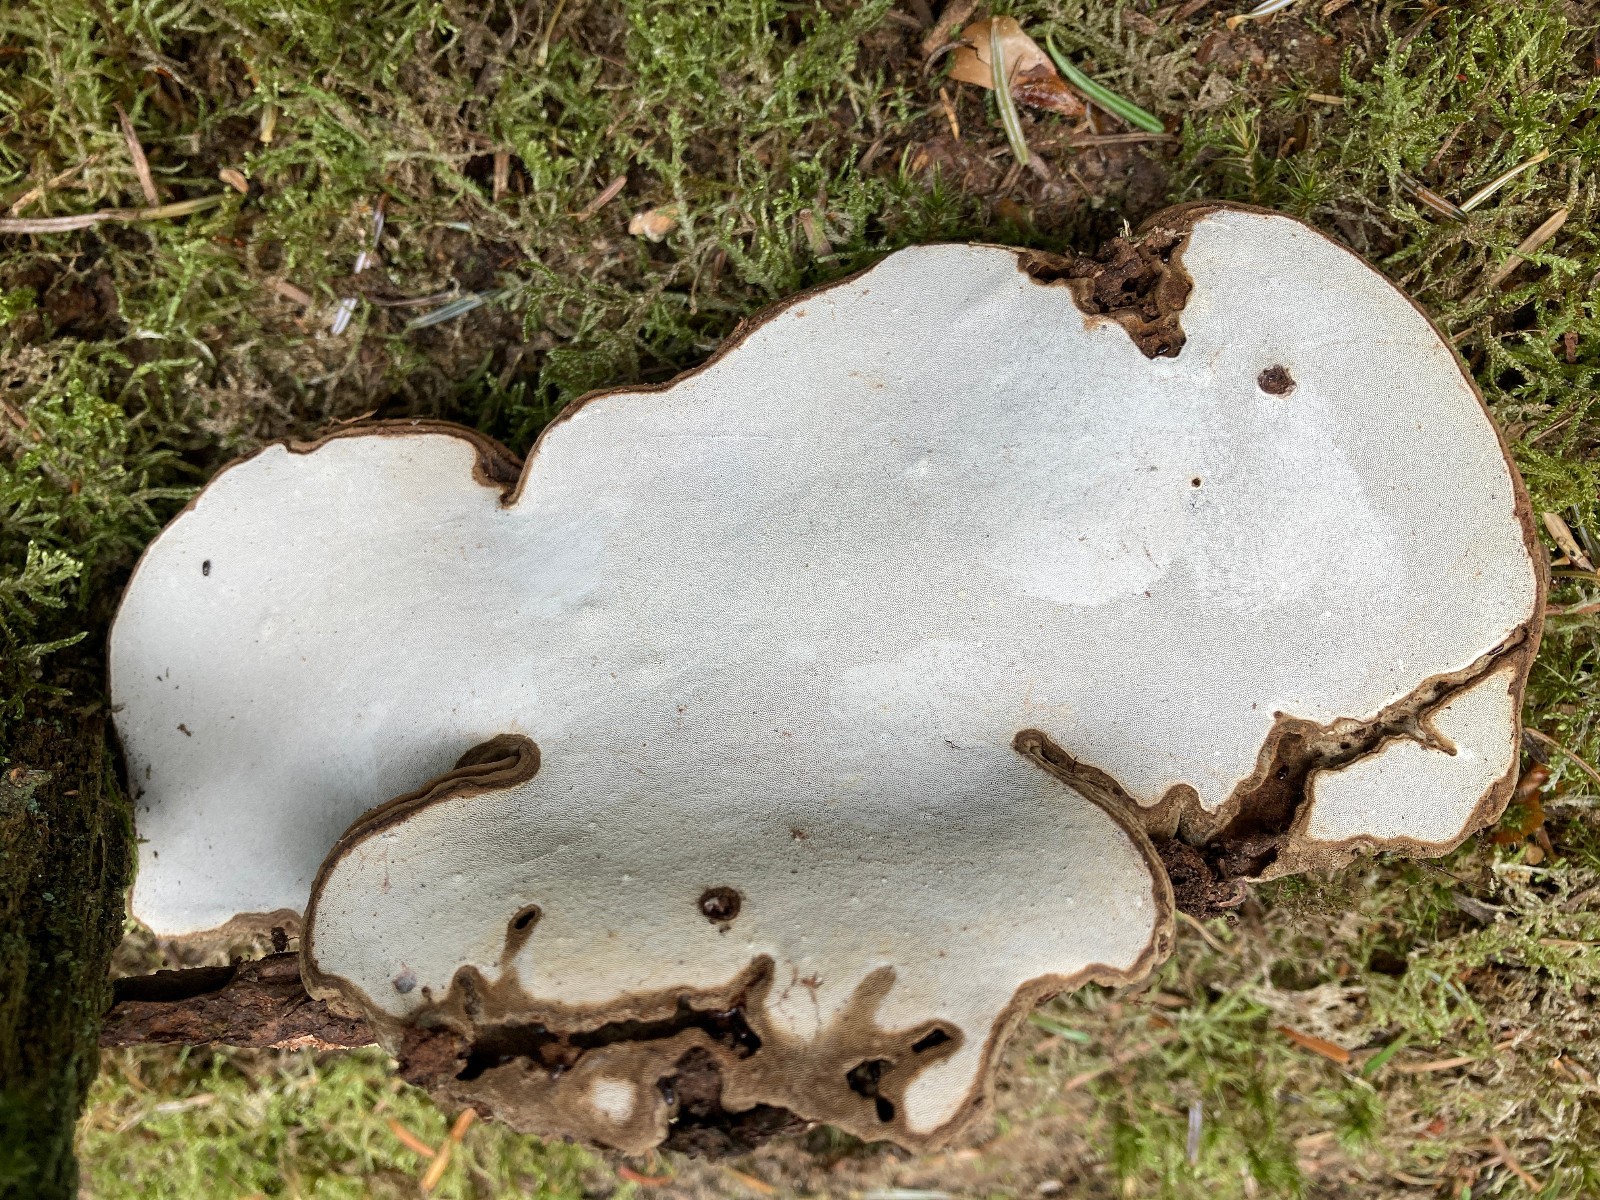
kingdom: Fungi
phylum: Basidiomycota
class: Agaricomycetes
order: Polyporales
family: Polyporaceae
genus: Ganoderma
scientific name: Ganoderma applanatum
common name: flad lakporesvamp
